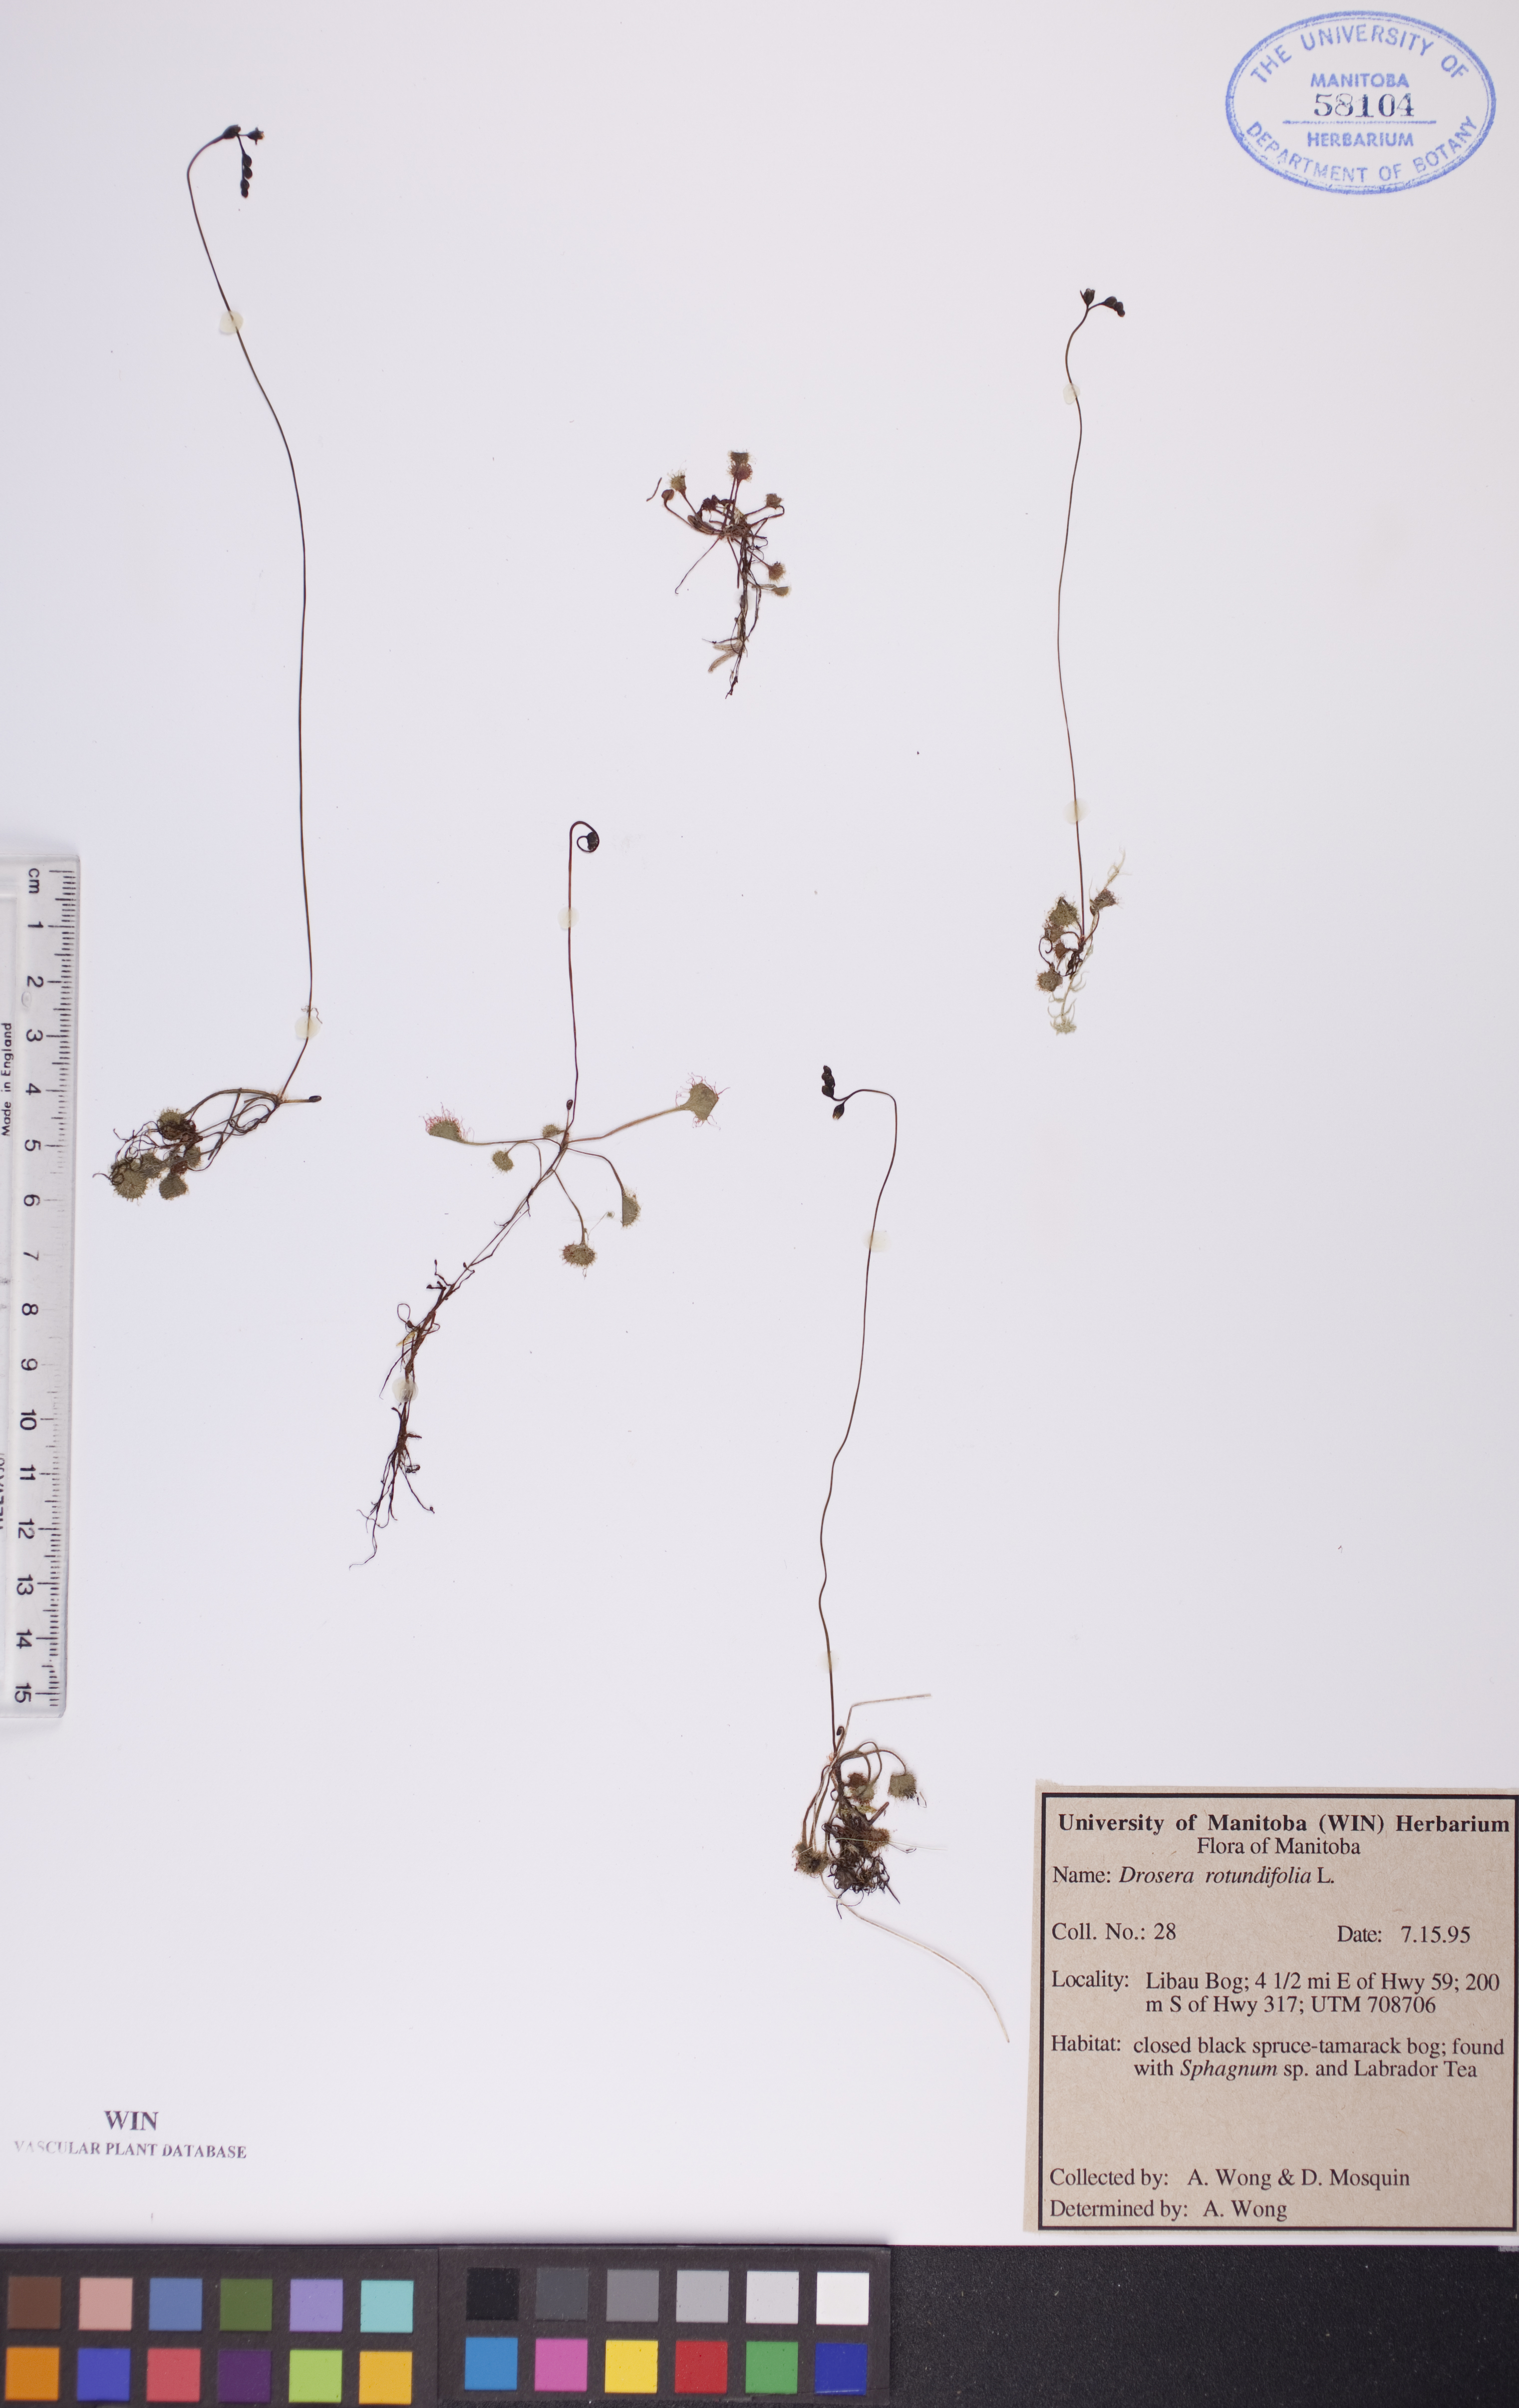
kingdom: Plantae
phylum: Tracheophyta
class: Magnoliopsida
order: Caryophyllales
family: Droseraceae
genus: Drosera
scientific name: Drosera rotundifolia
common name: Round-leaved sundew
